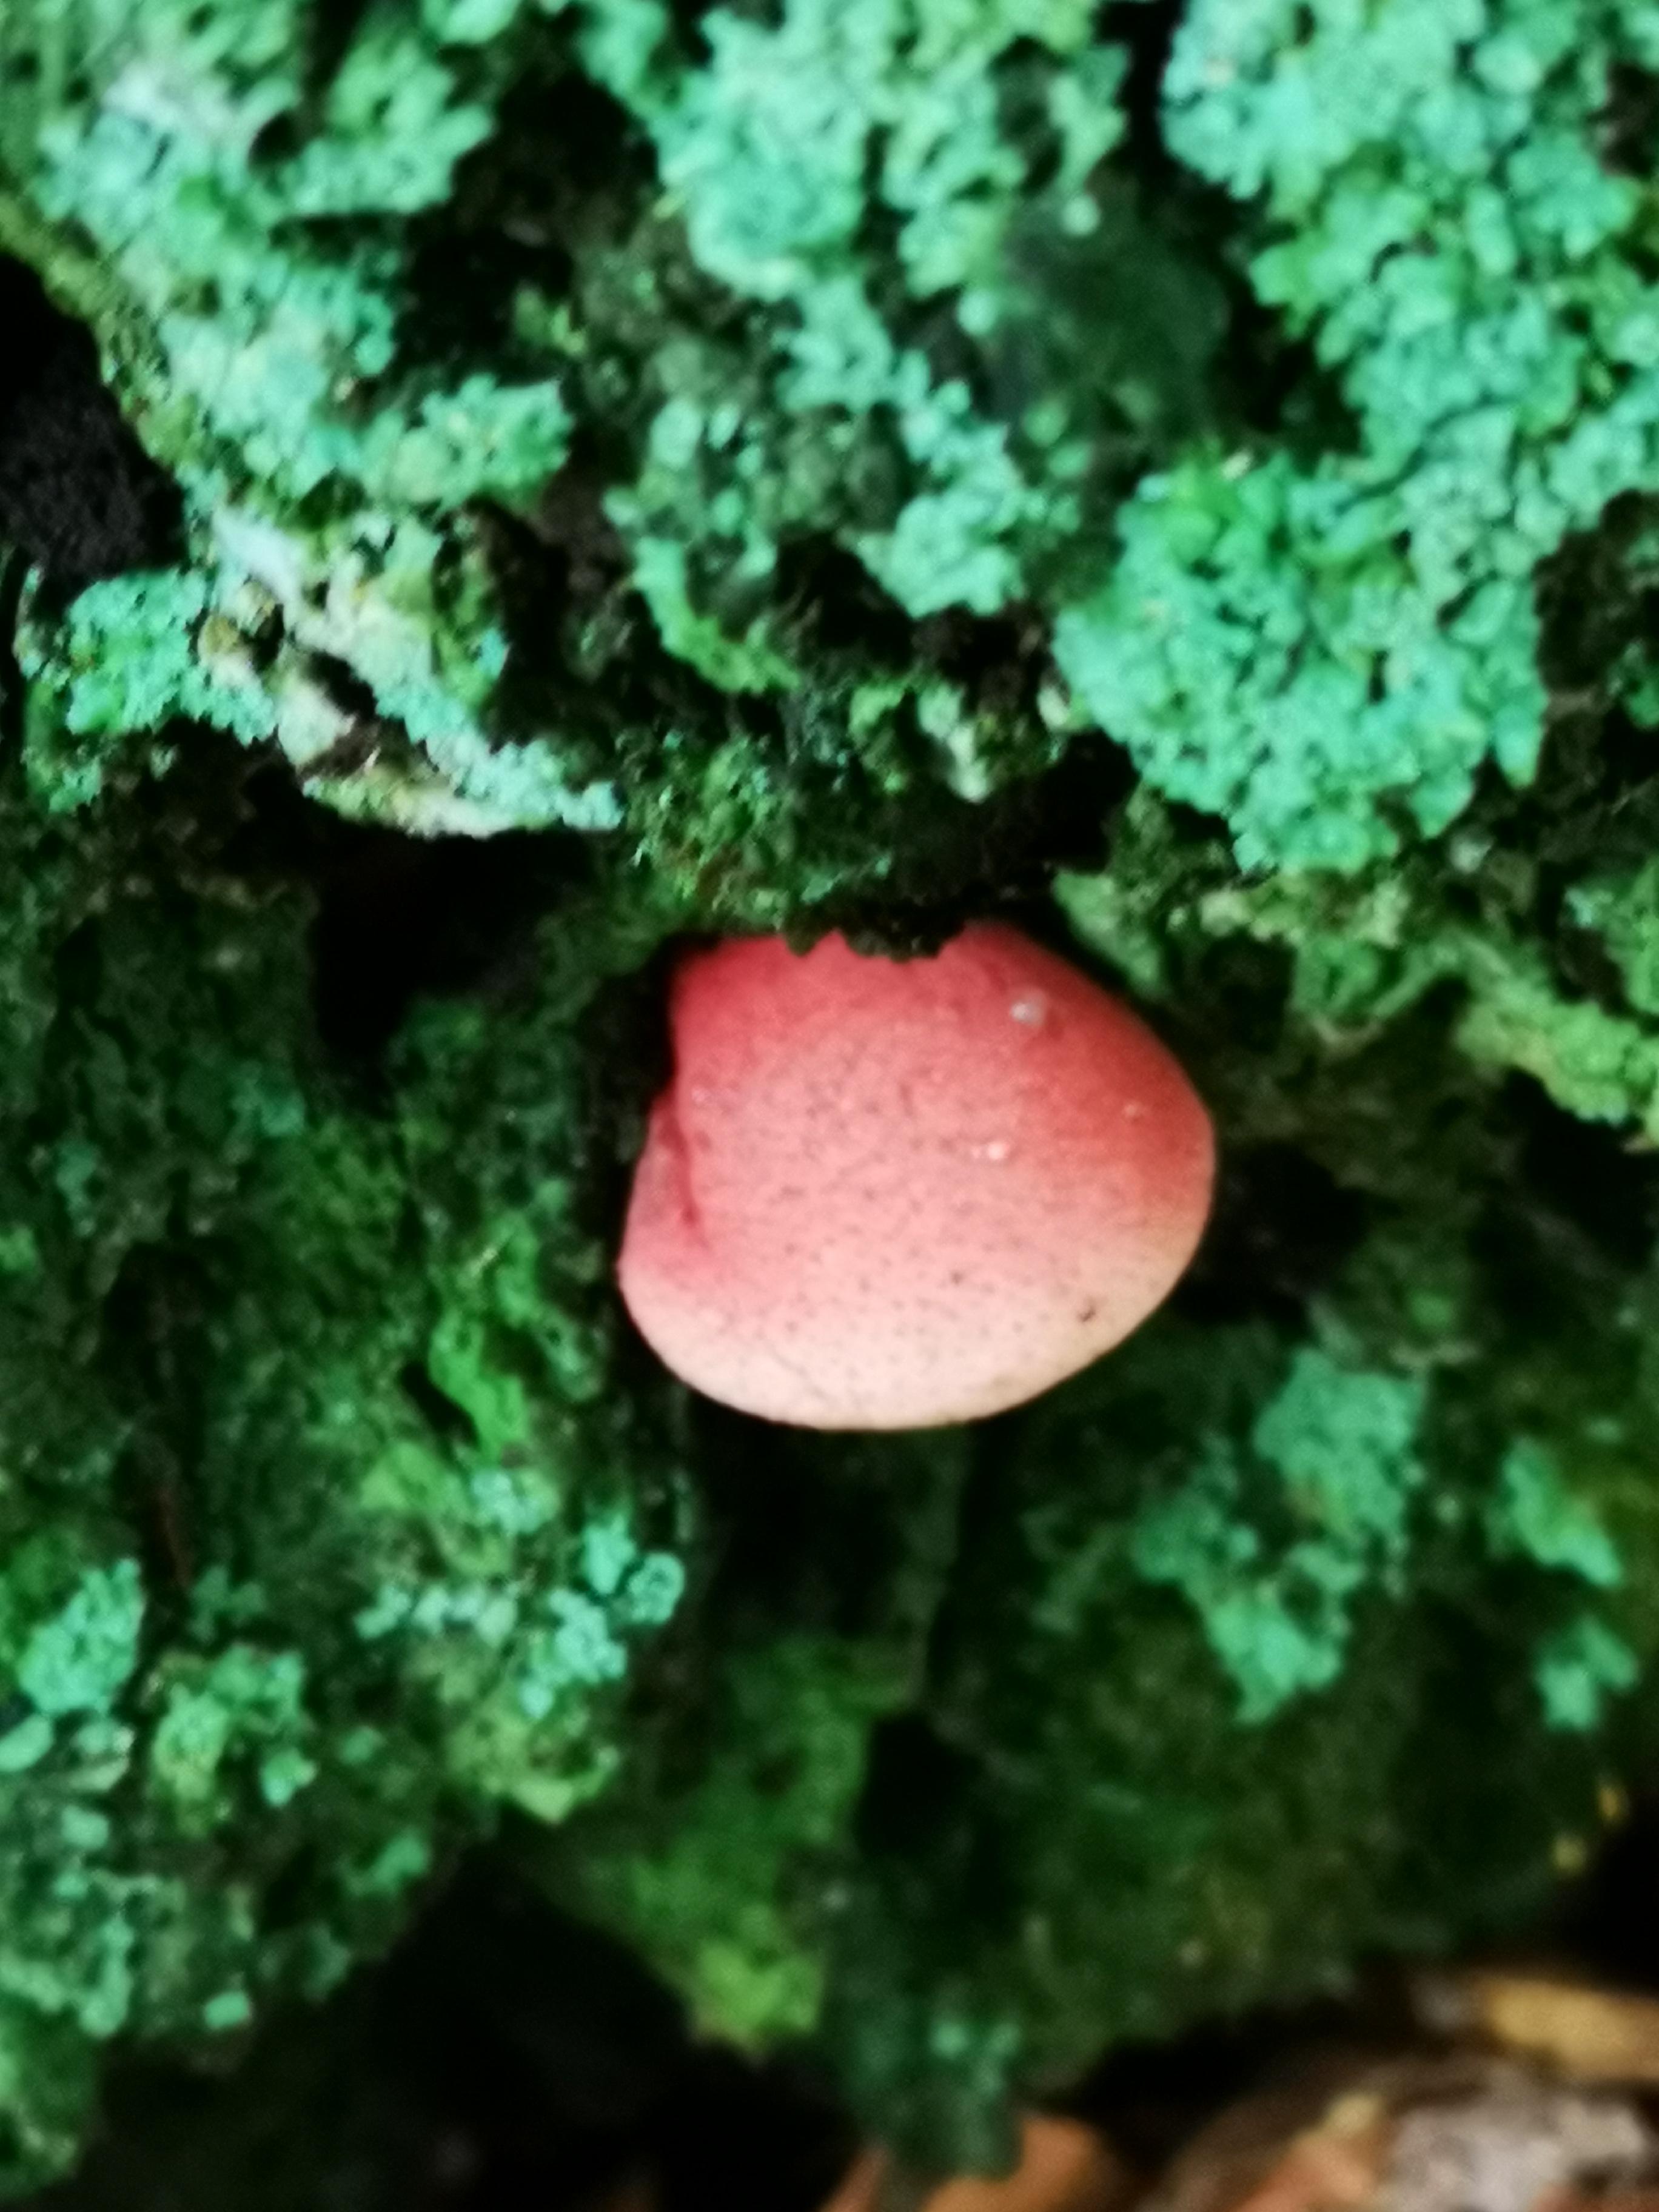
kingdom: Fungi
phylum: Basidiomycota
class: Agaricomycetes
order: Agaricales
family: Fistulinaceae
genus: Fistulina
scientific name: Fistulina hepatica
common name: oksetunge
